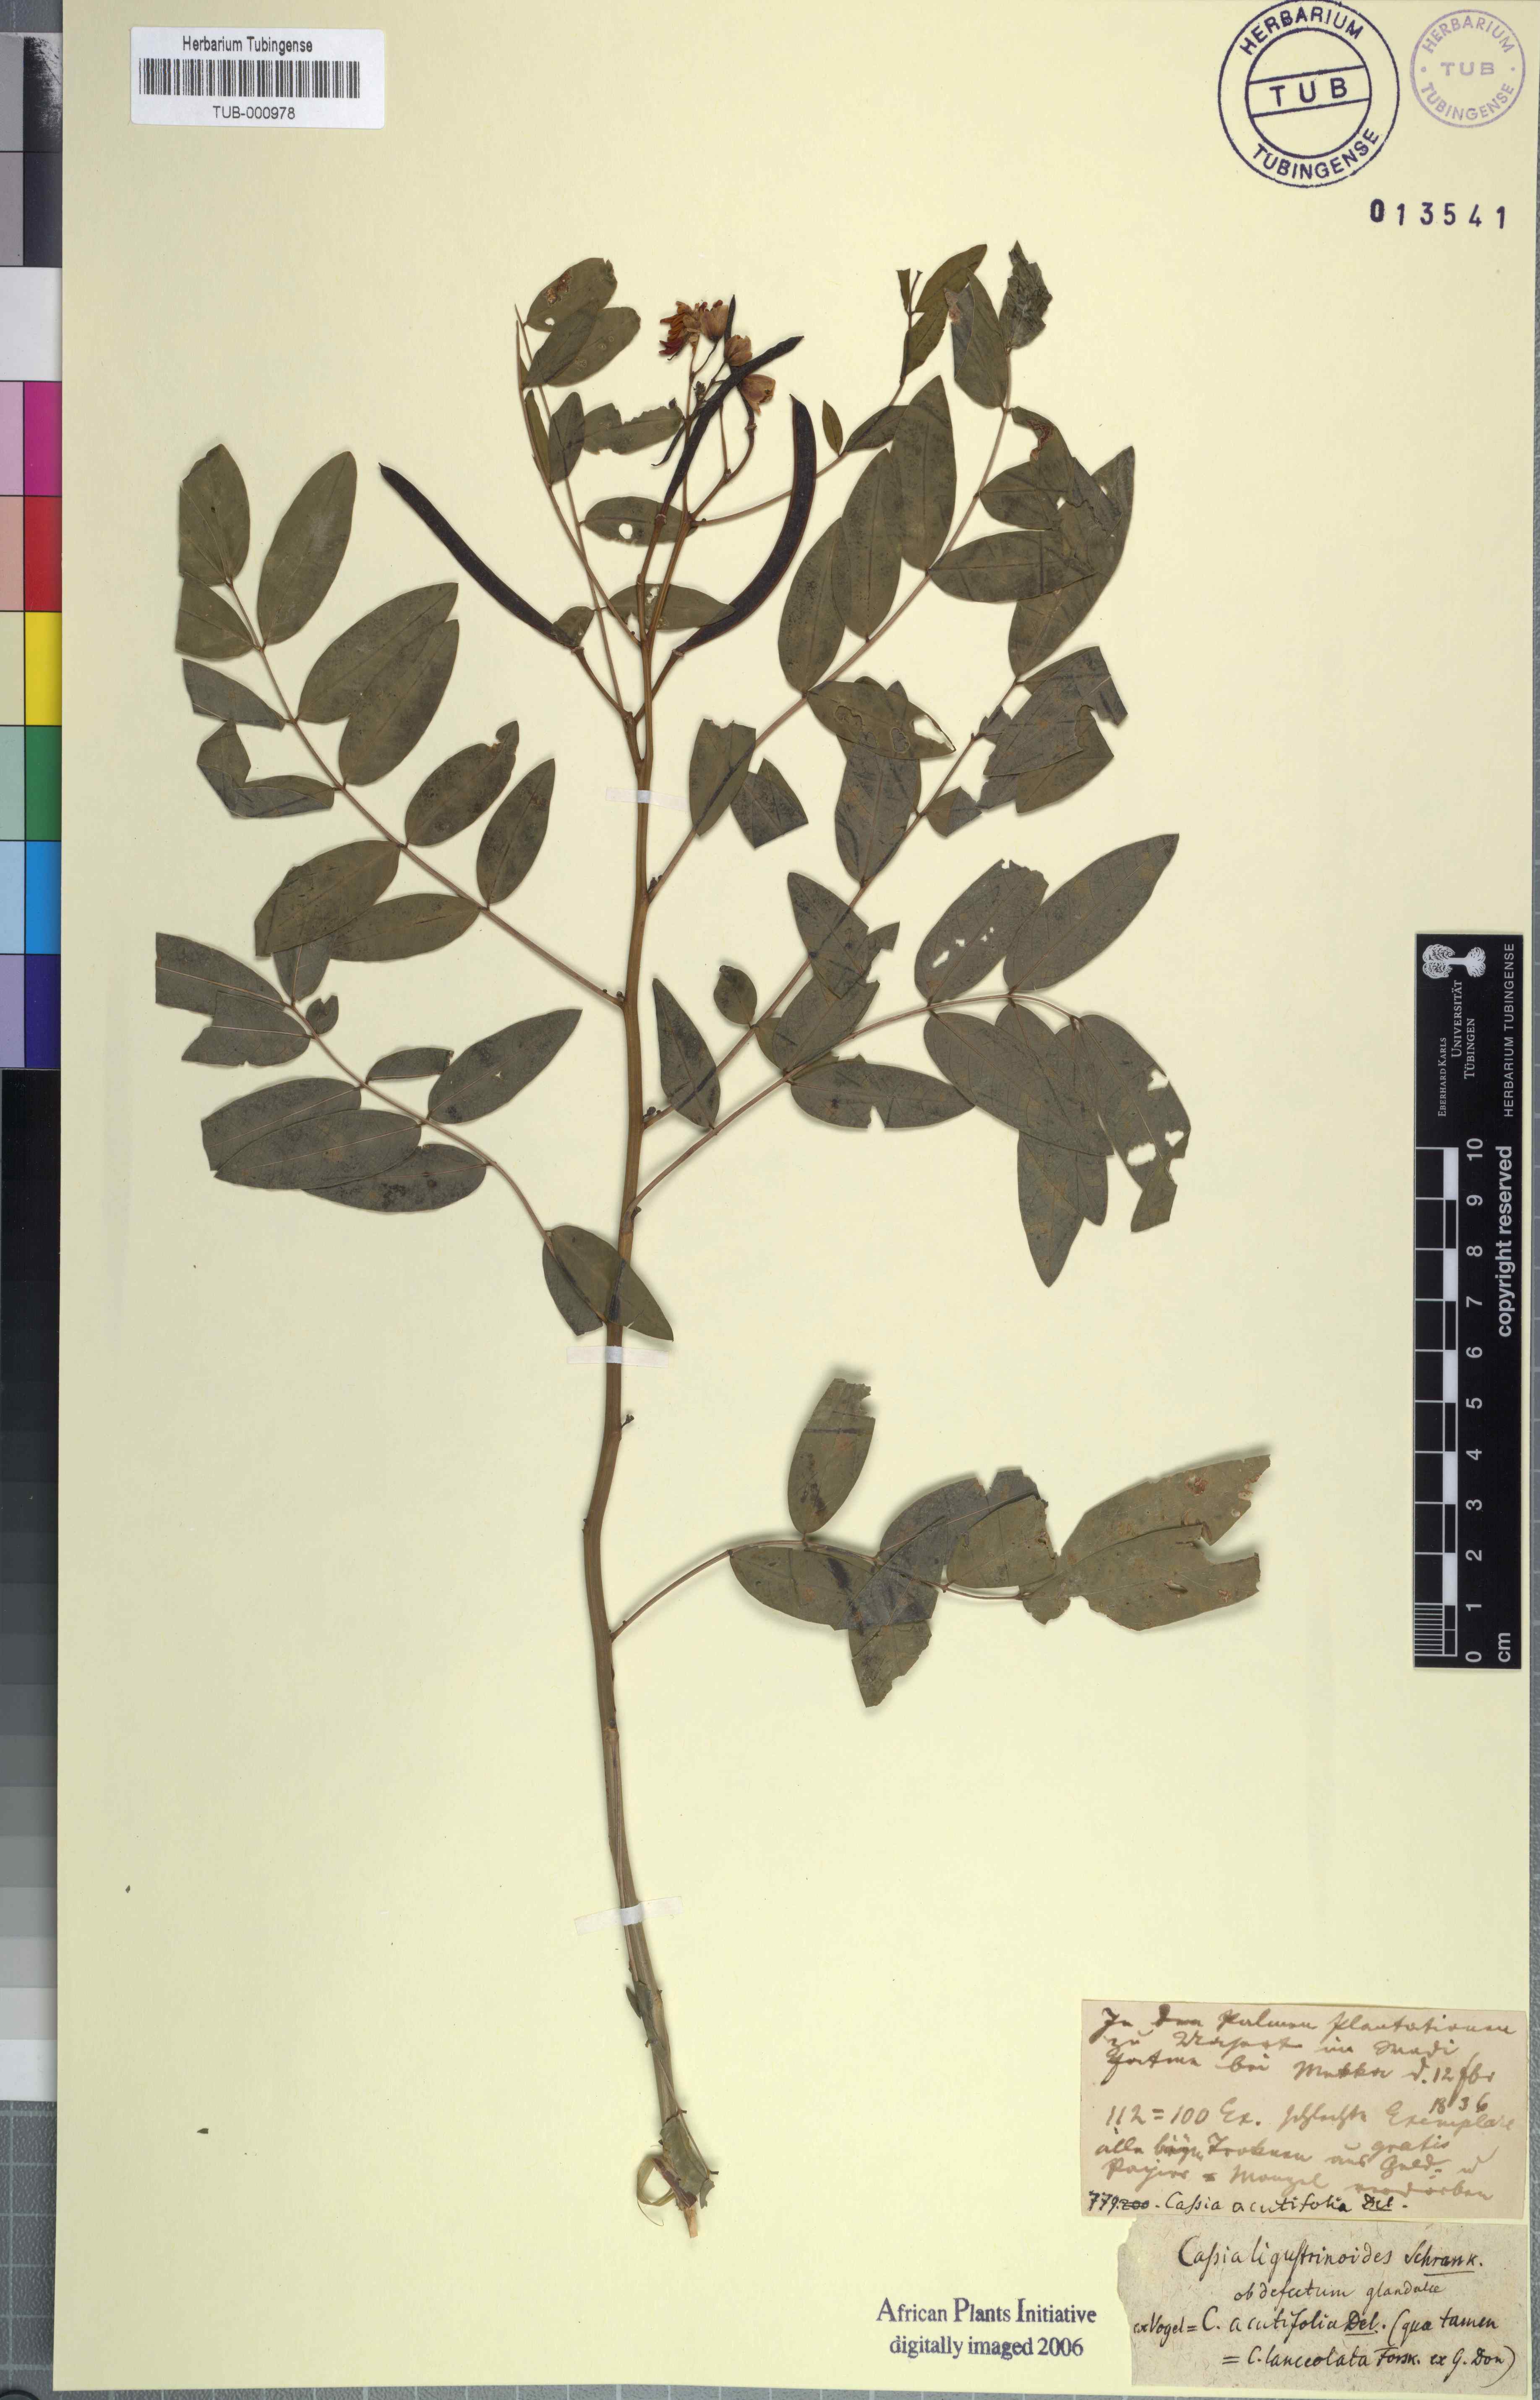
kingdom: Plantae
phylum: Tracheophyta
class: Magnoliopsida
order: Fabales
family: Fabaceae
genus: Senna
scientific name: Senna alexandrina
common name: True senna
